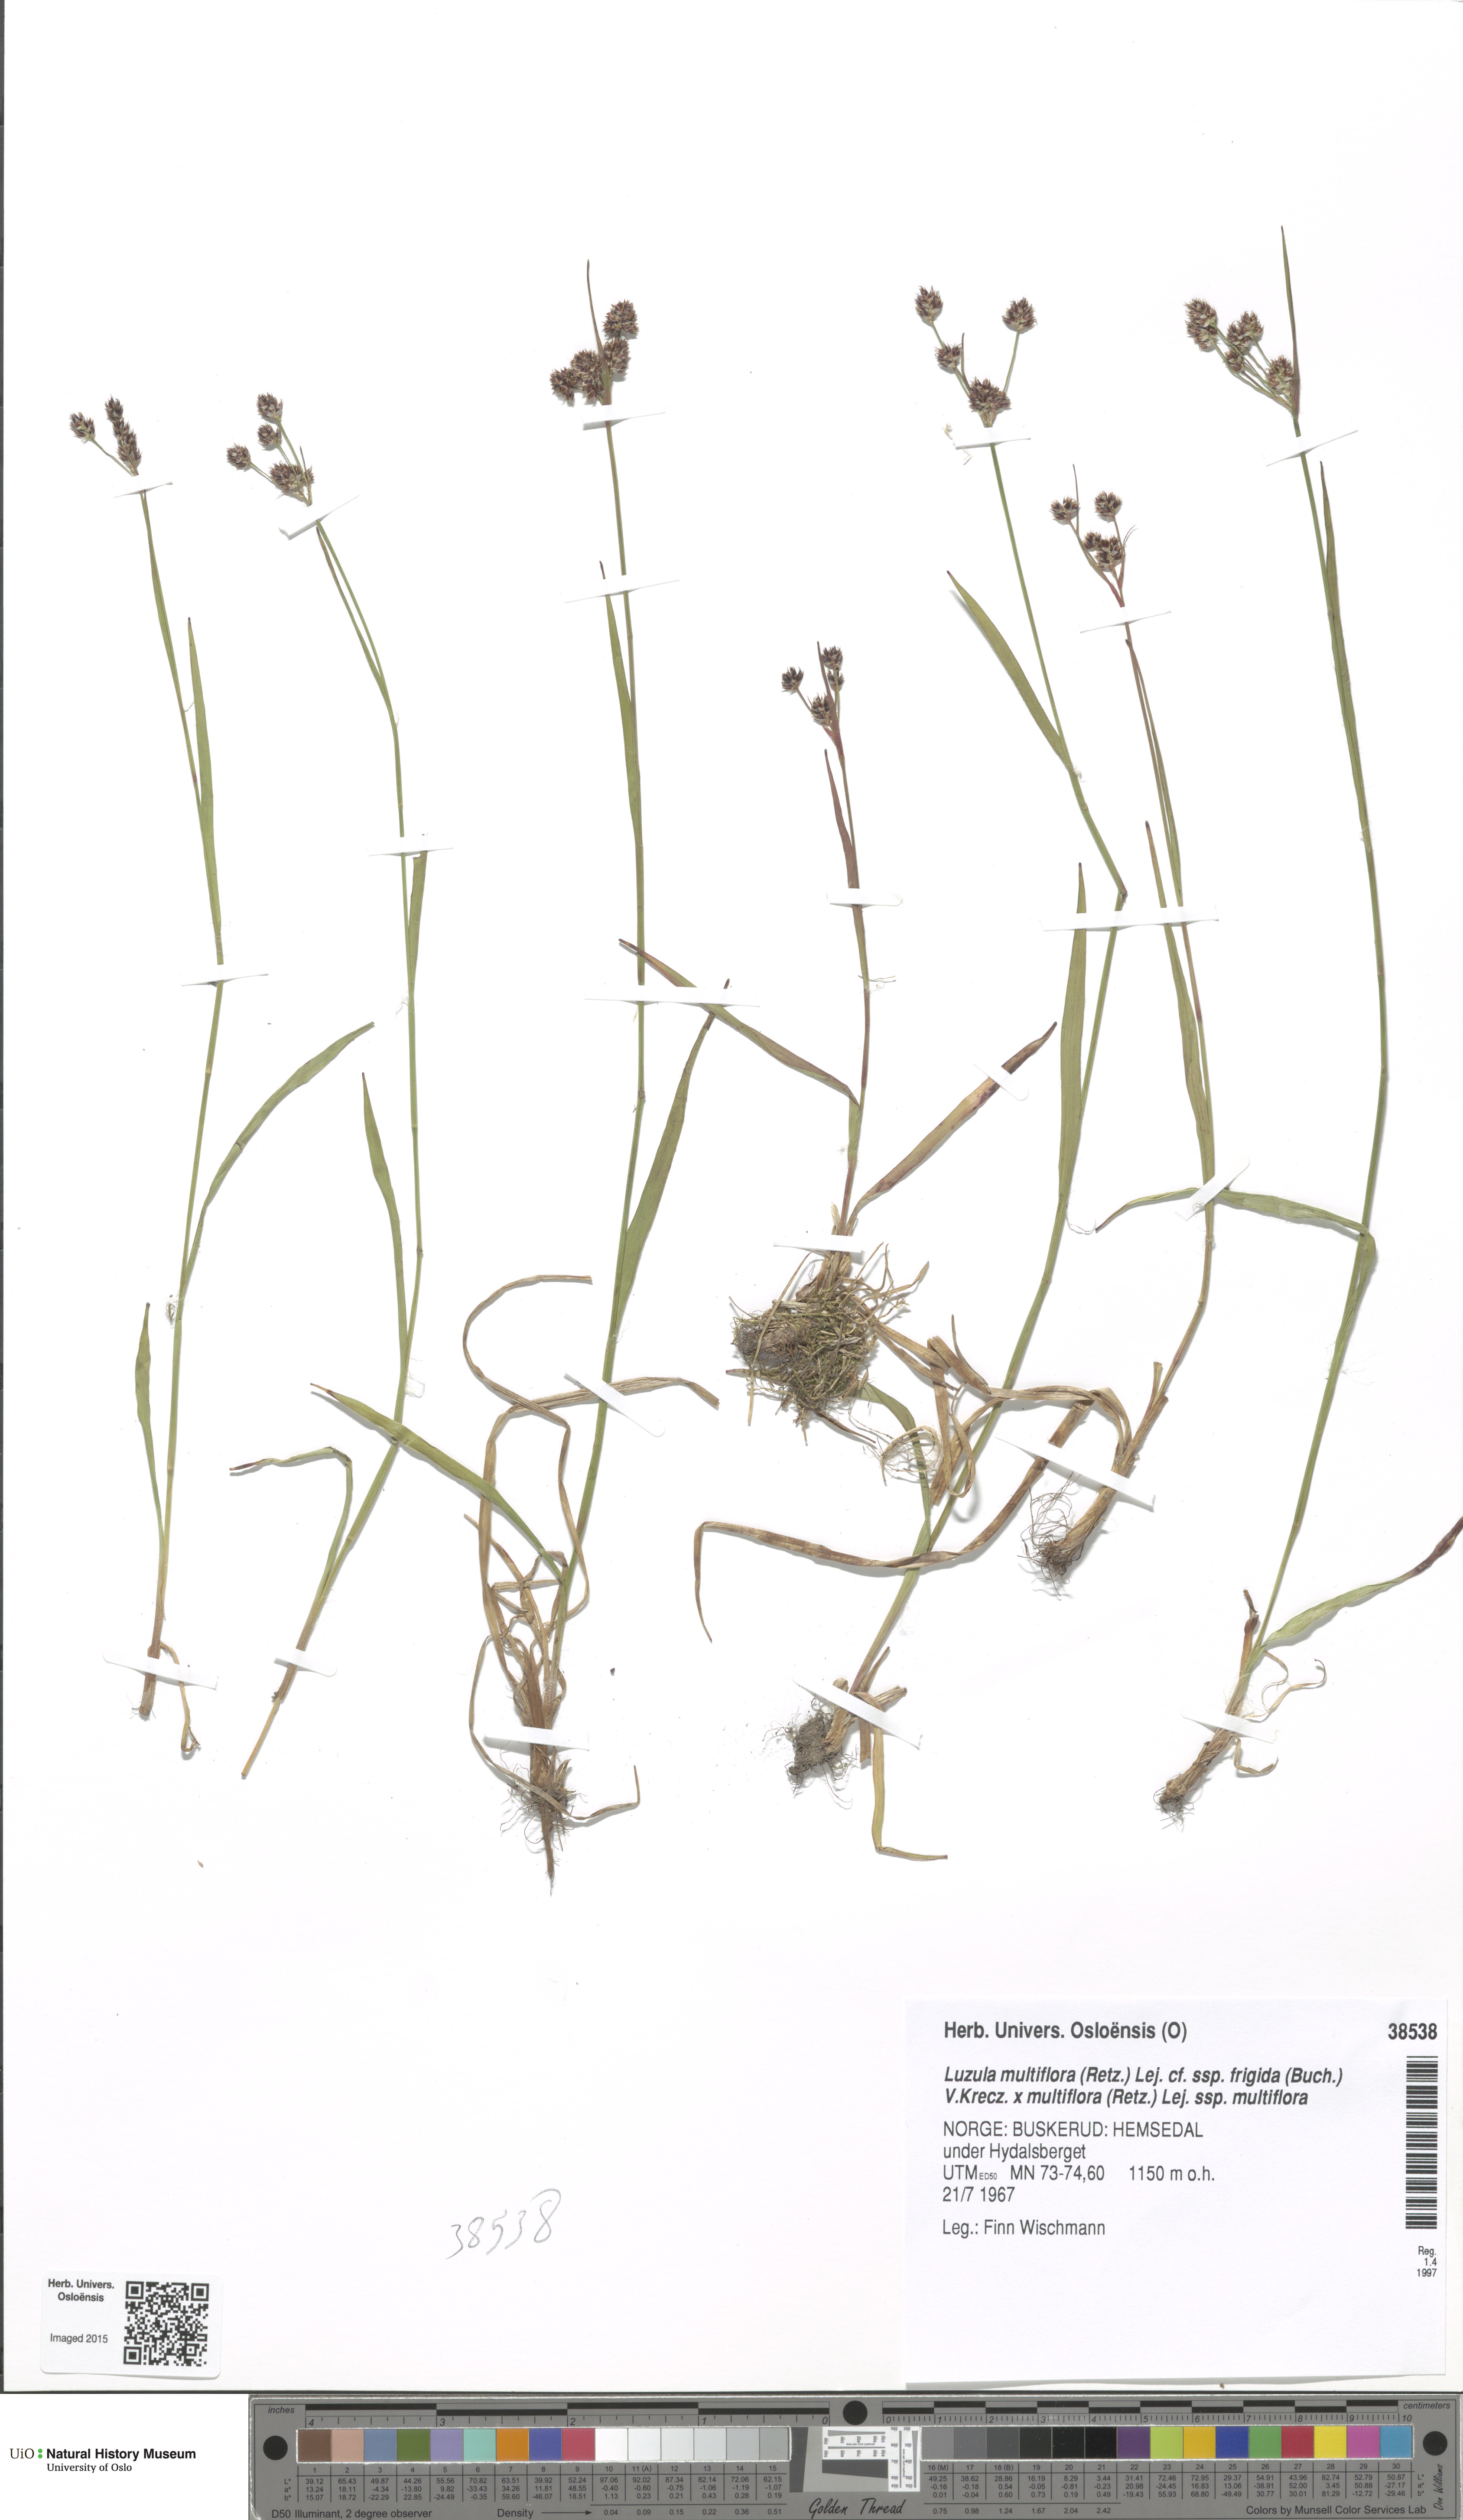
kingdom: Plantae
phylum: Tracheophyta
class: Liliopsida
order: Poales
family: Juncaceae
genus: Luzula
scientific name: Luzula
